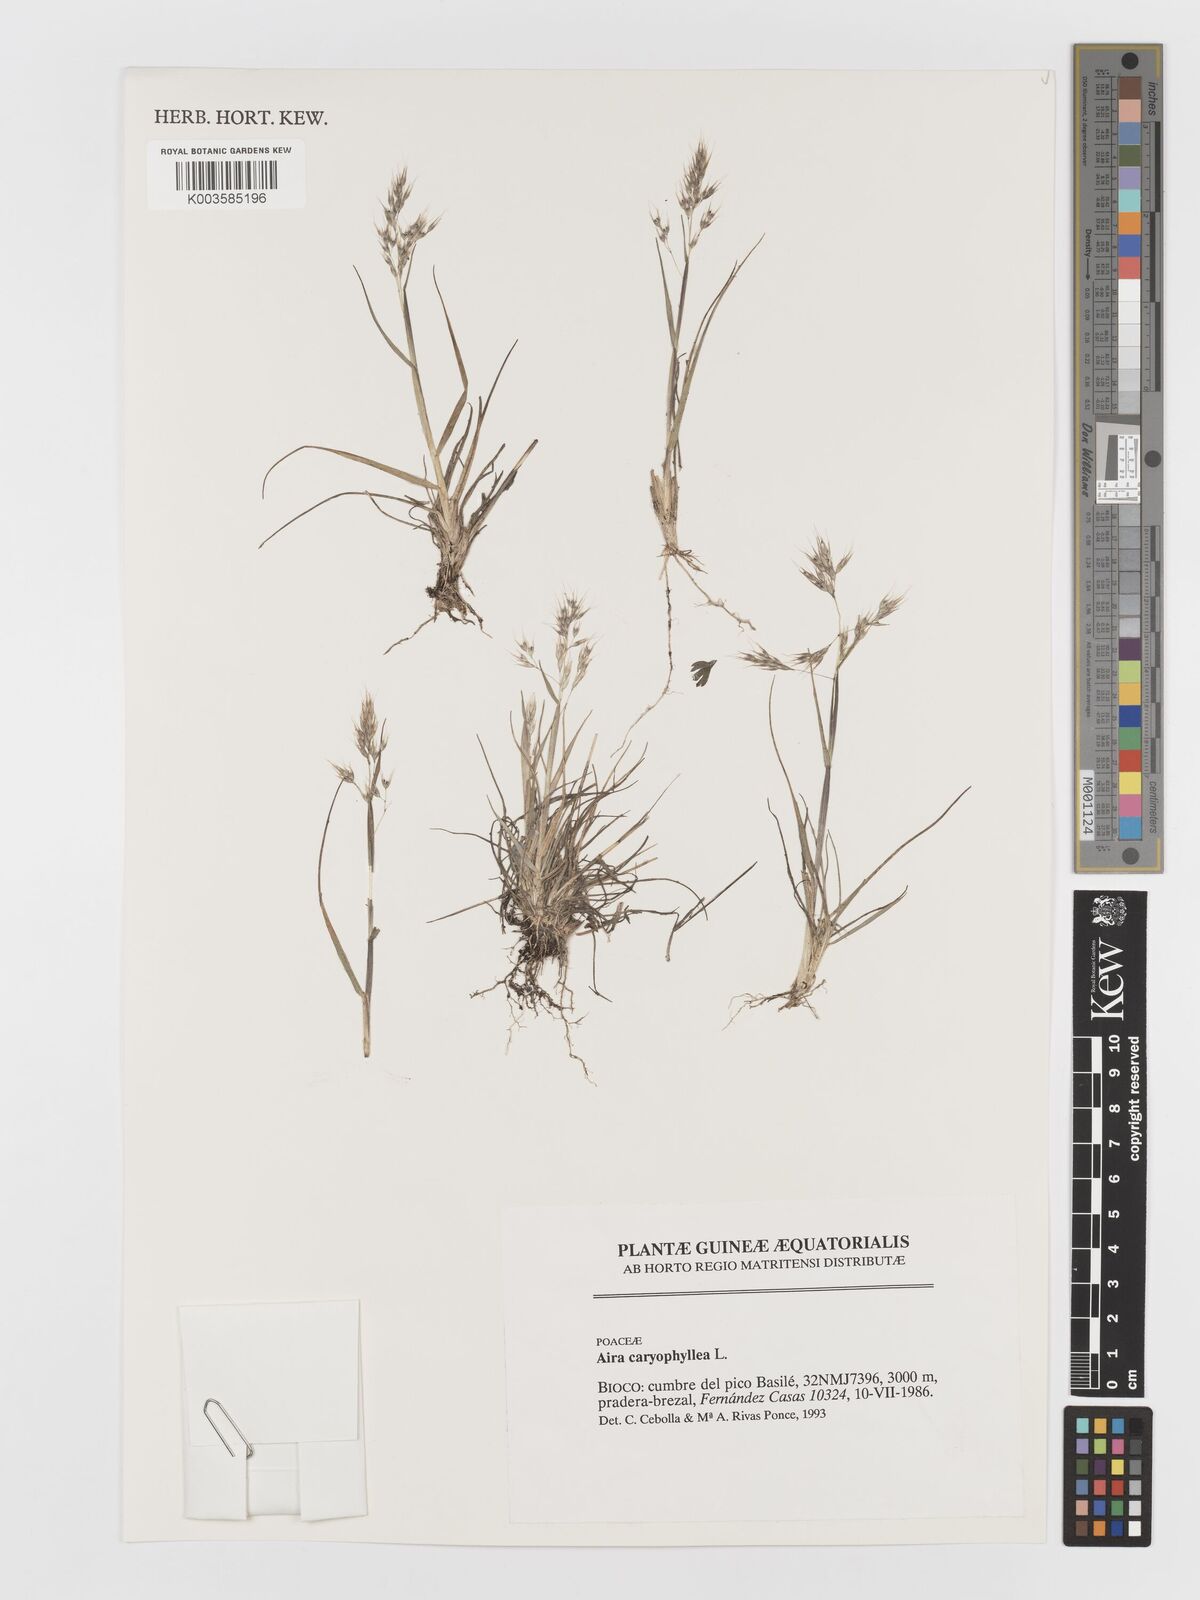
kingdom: Plantae
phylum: Tracheophyta
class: Liliopsida
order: Poales
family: Poaceae
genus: Aira
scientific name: Aira caryophyllea
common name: Silver hairgrass
